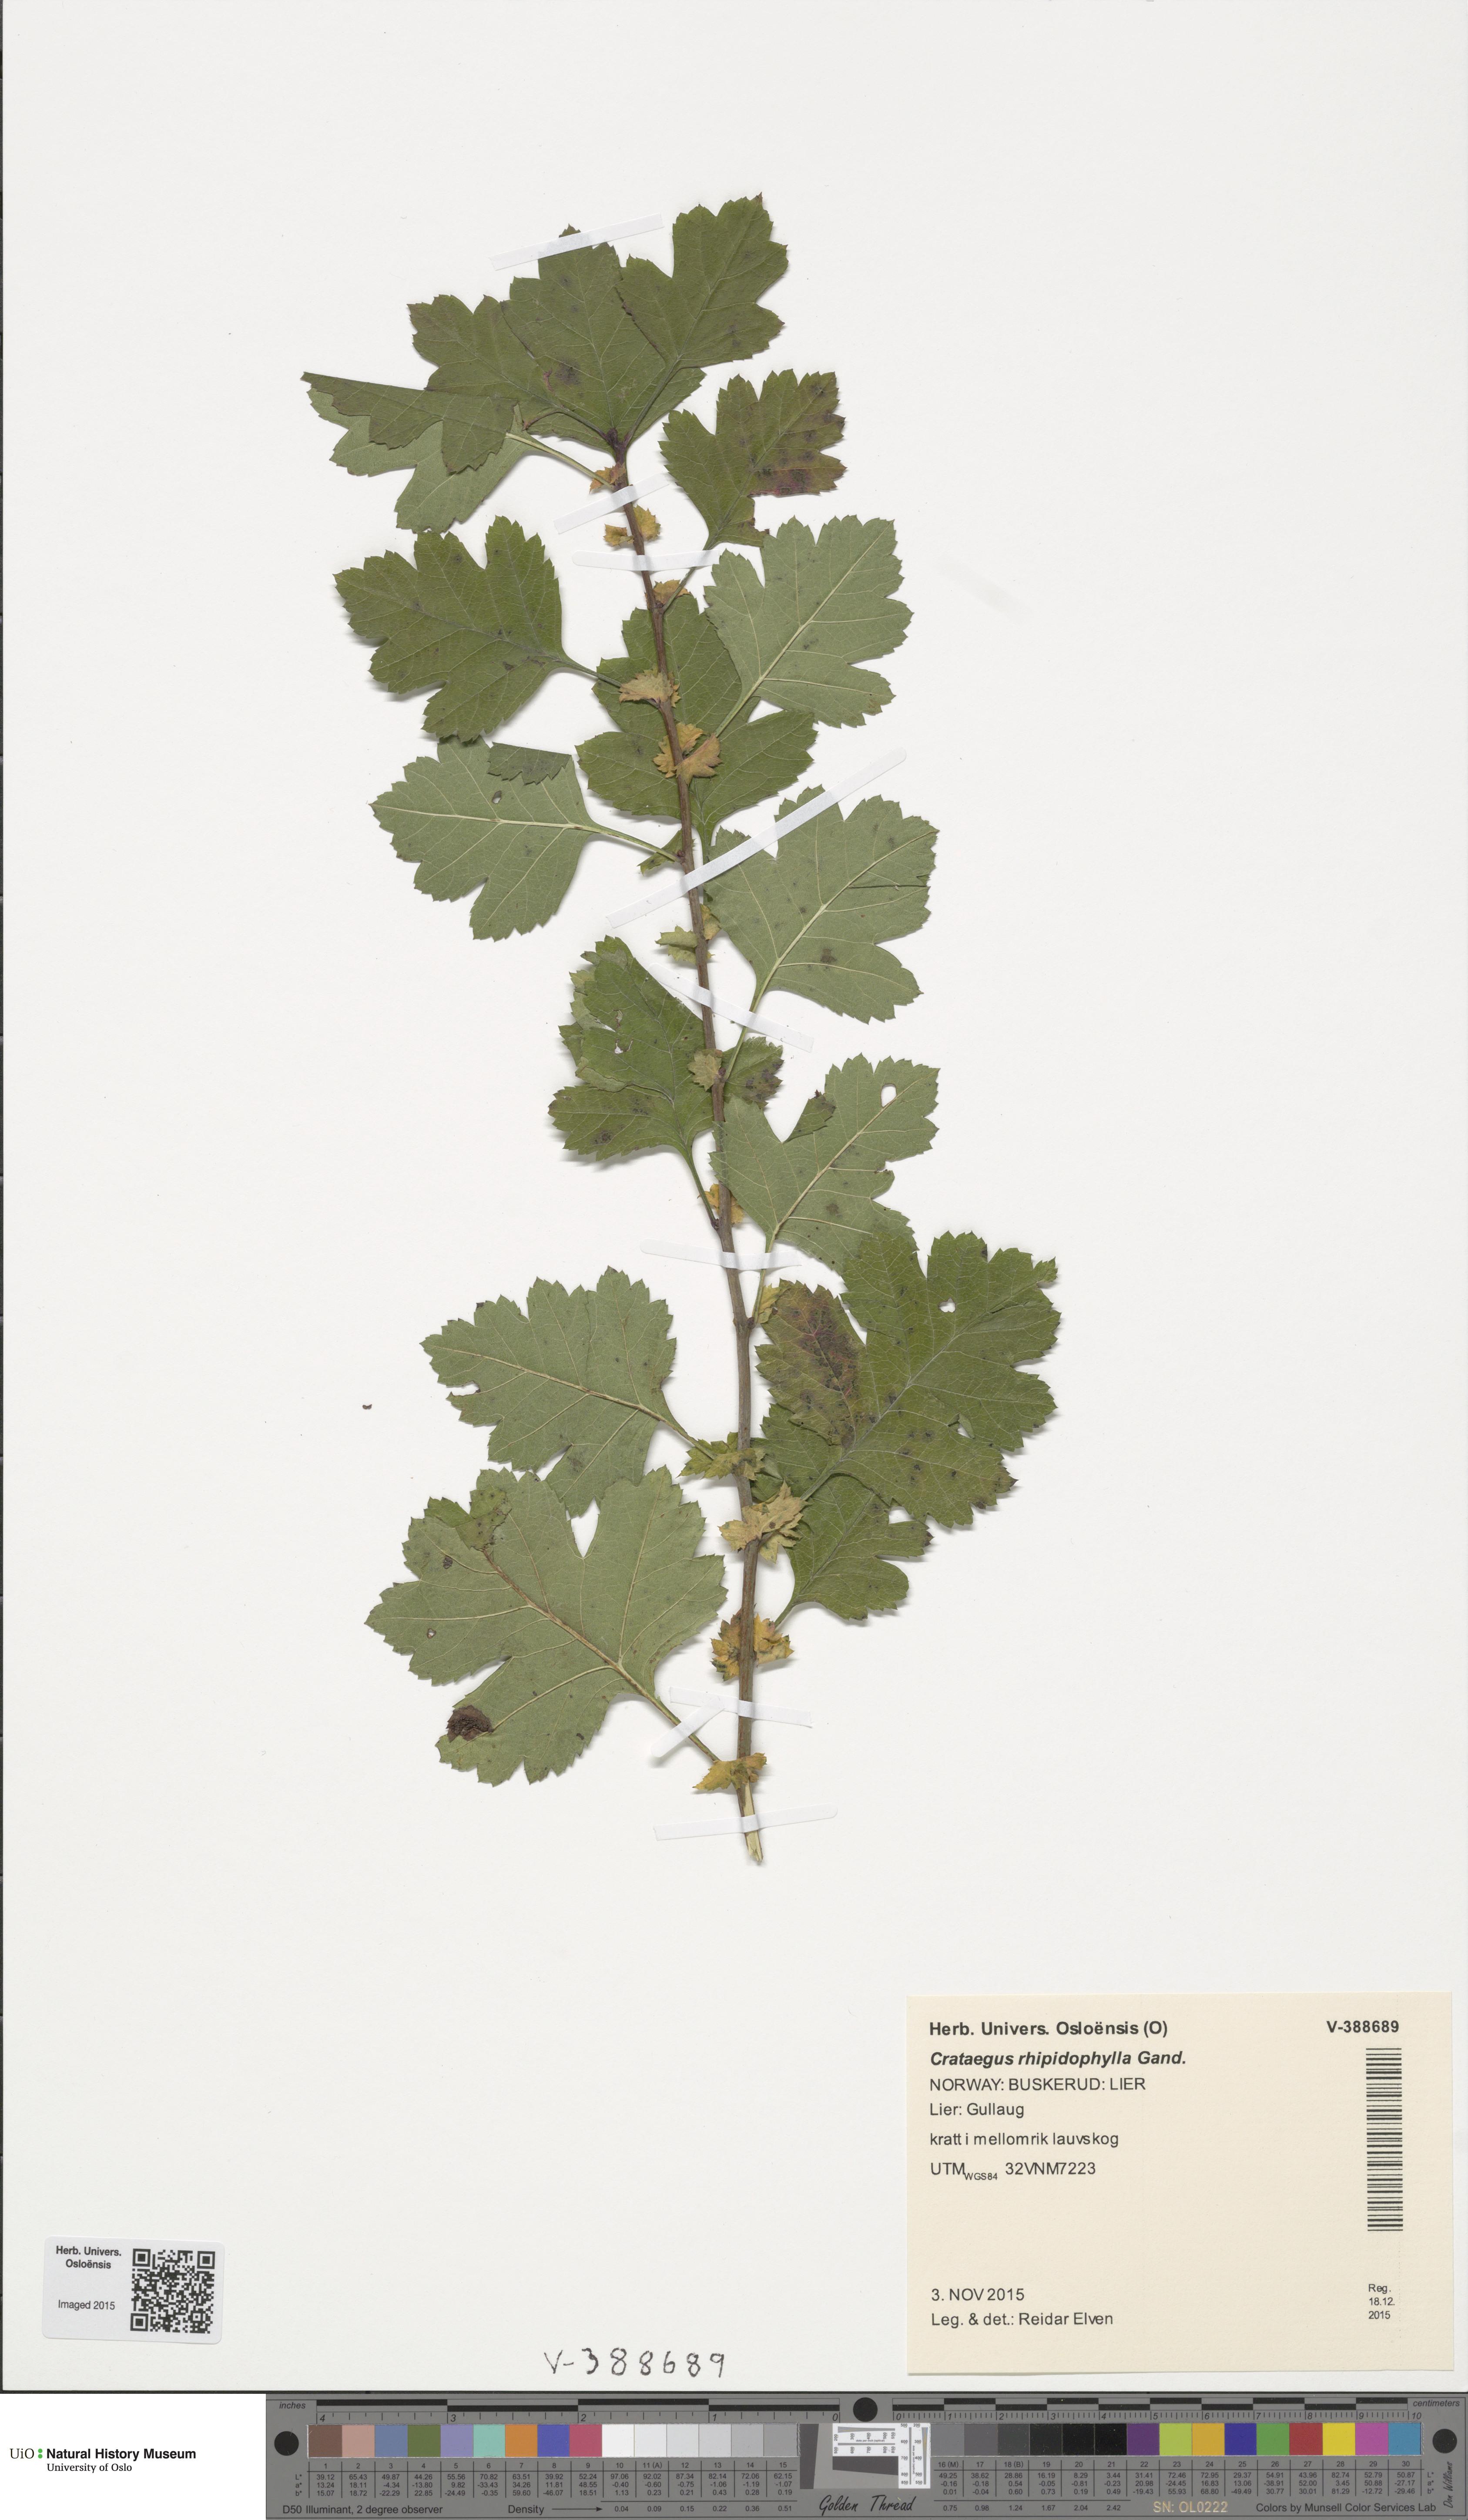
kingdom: Plantae
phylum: Tracheophyta
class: Magnoliopsida
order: Rosales
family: Rosaceae
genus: Crataegus
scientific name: Crataegus rhipidophylla
